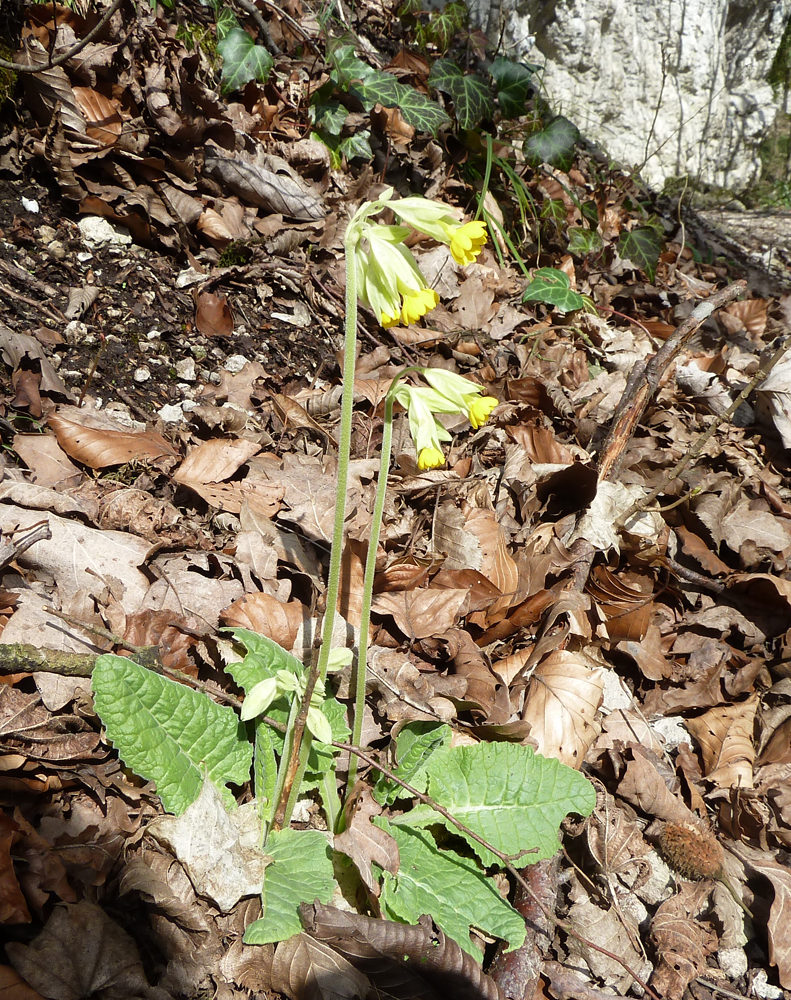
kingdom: Plantae
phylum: Tracheophyta
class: Magnoliopsida
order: Ericales
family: Primulaceae
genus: Primula
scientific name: Primula veris
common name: Cowslip
